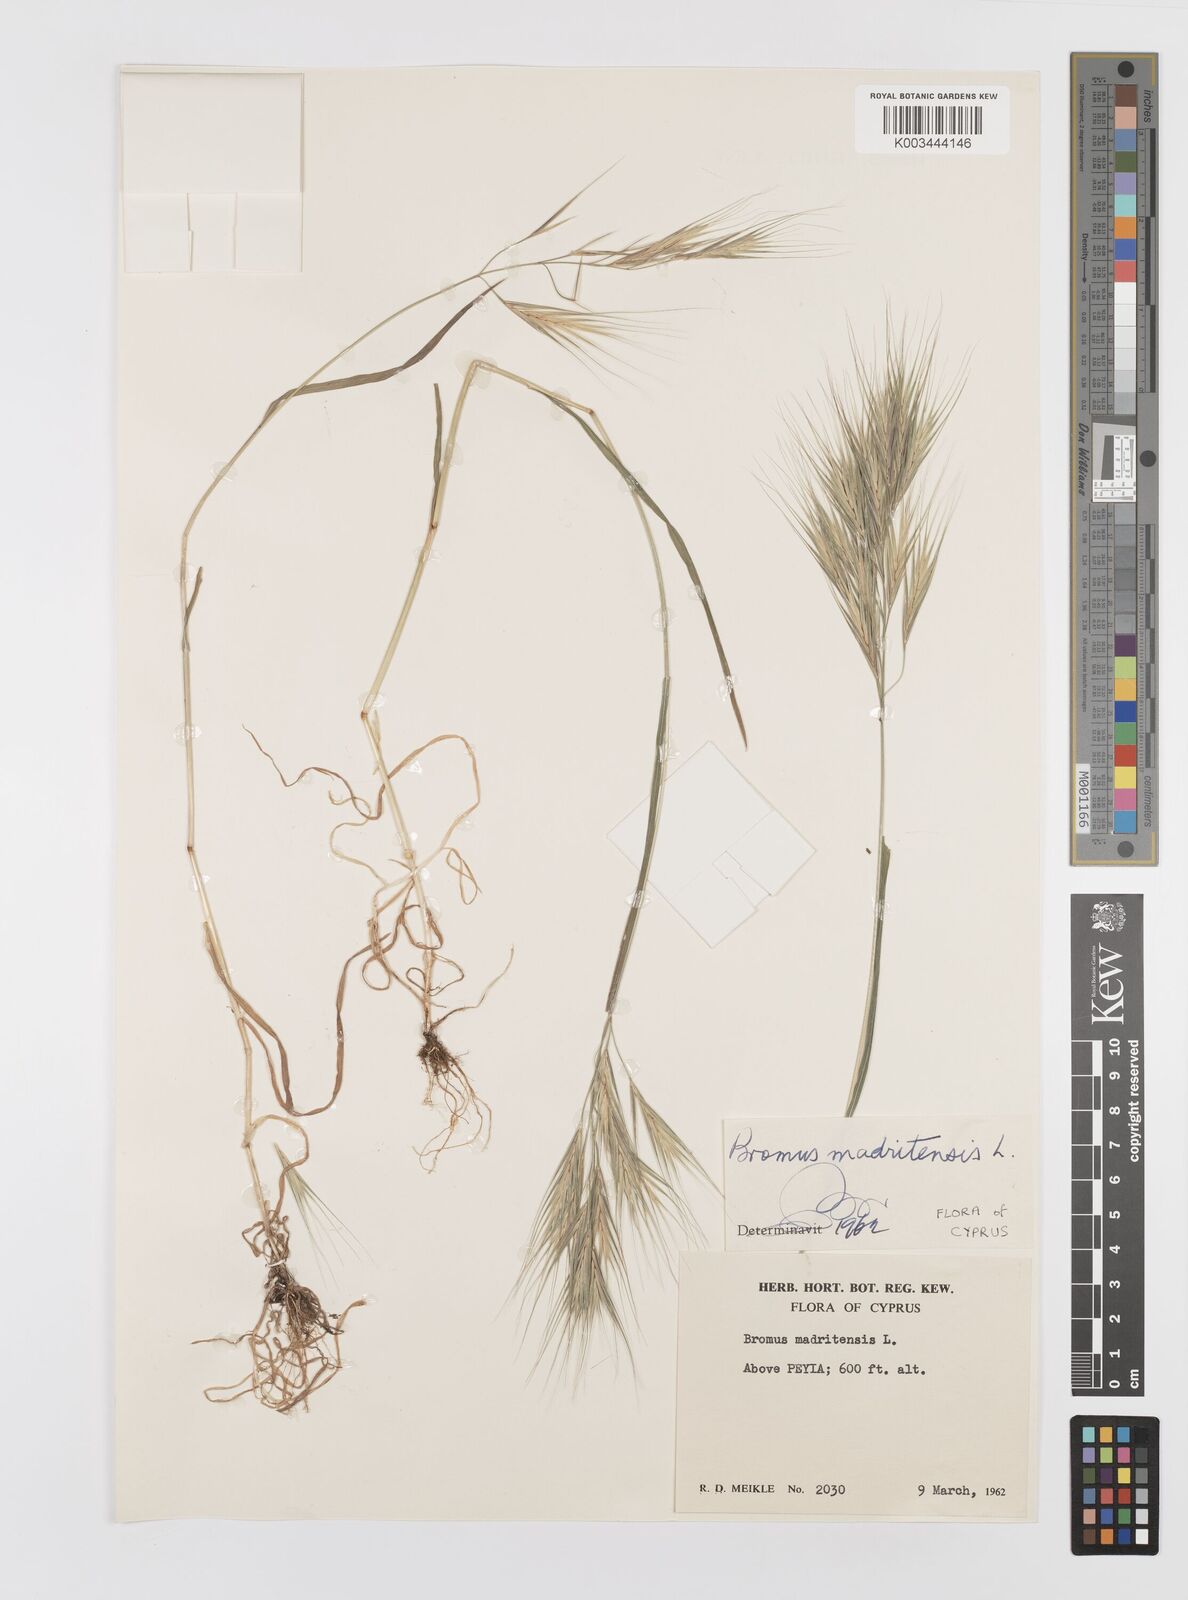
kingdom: Plantae
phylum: Tracheophyta
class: Liliopsida
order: Poales
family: Poaceae
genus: Bromus
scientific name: Bromus madritensis
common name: Compact brome
